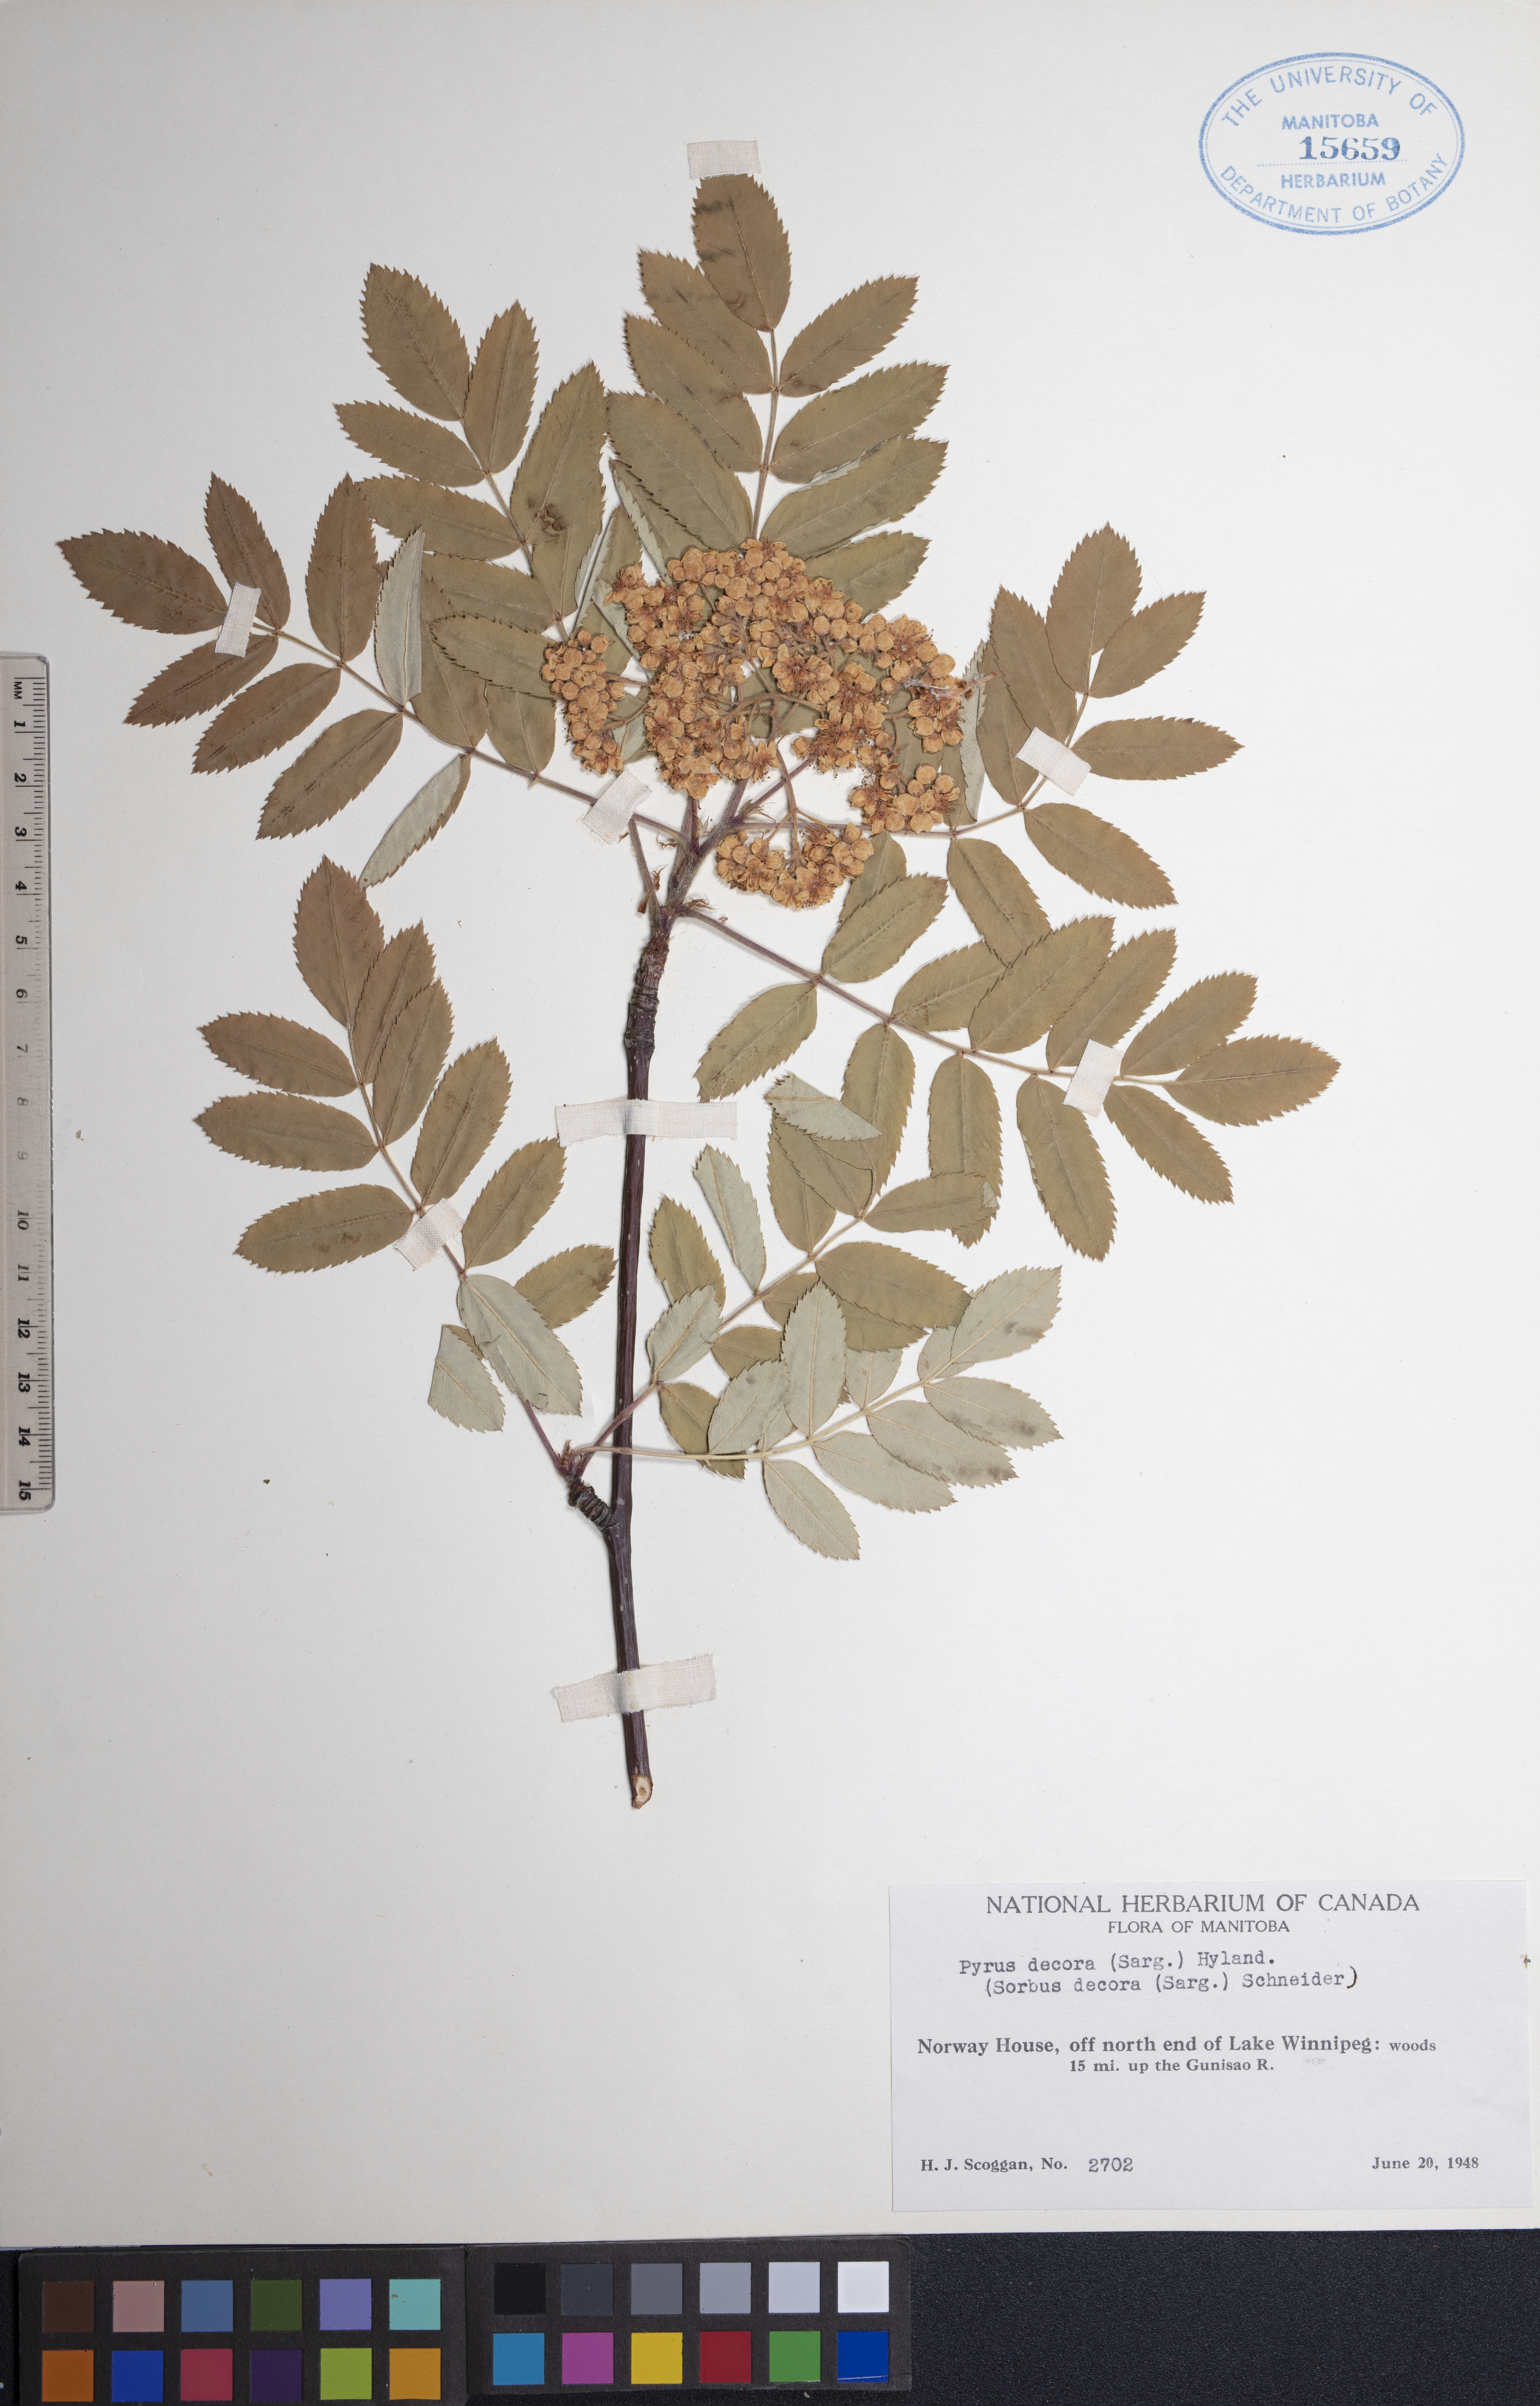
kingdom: Plantae
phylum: Tracheophyta
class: Magnoliopsida
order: Rosales
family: Rosaceae
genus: Sorbus
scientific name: Sorbus decora
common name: Northern mountain-ash
